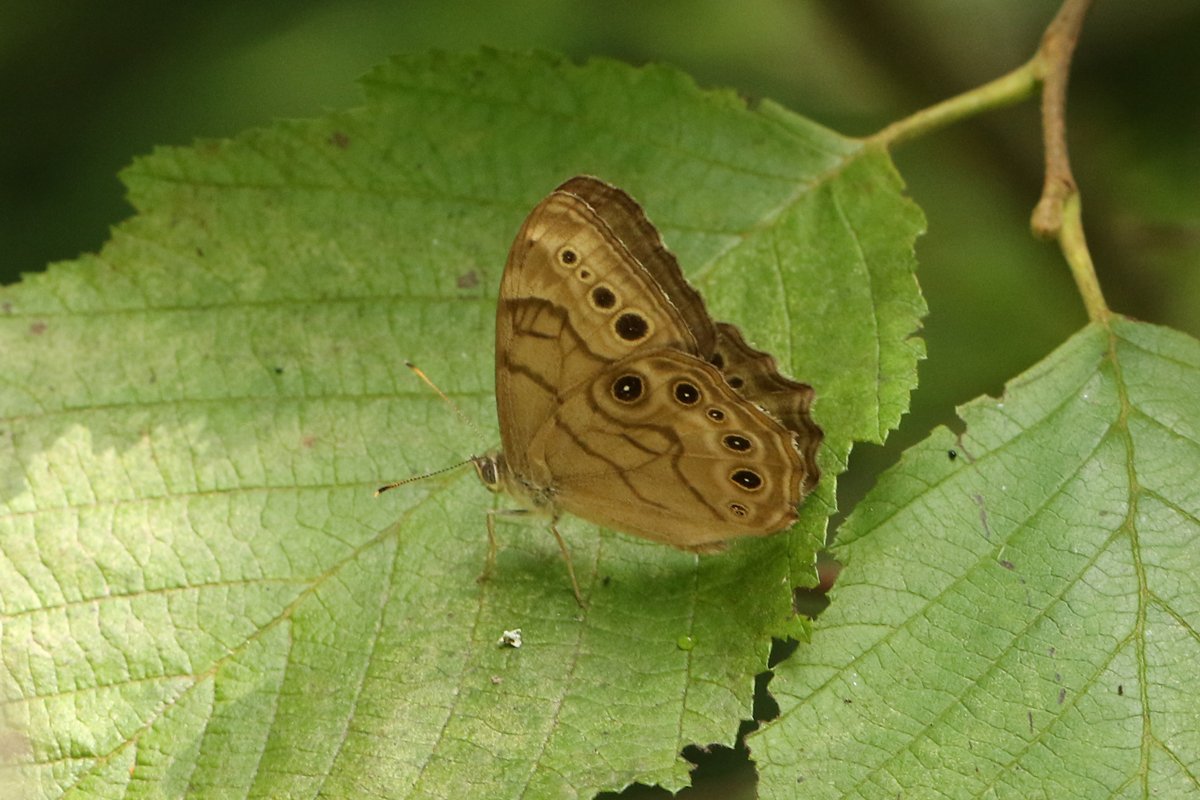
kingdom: Animalia
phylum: Arthropoda
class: Insecta
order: Lepidoptera
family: Nymphalidae
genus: Lethe
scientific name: Lethe anthedon
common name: Northern Pearly-Eye
